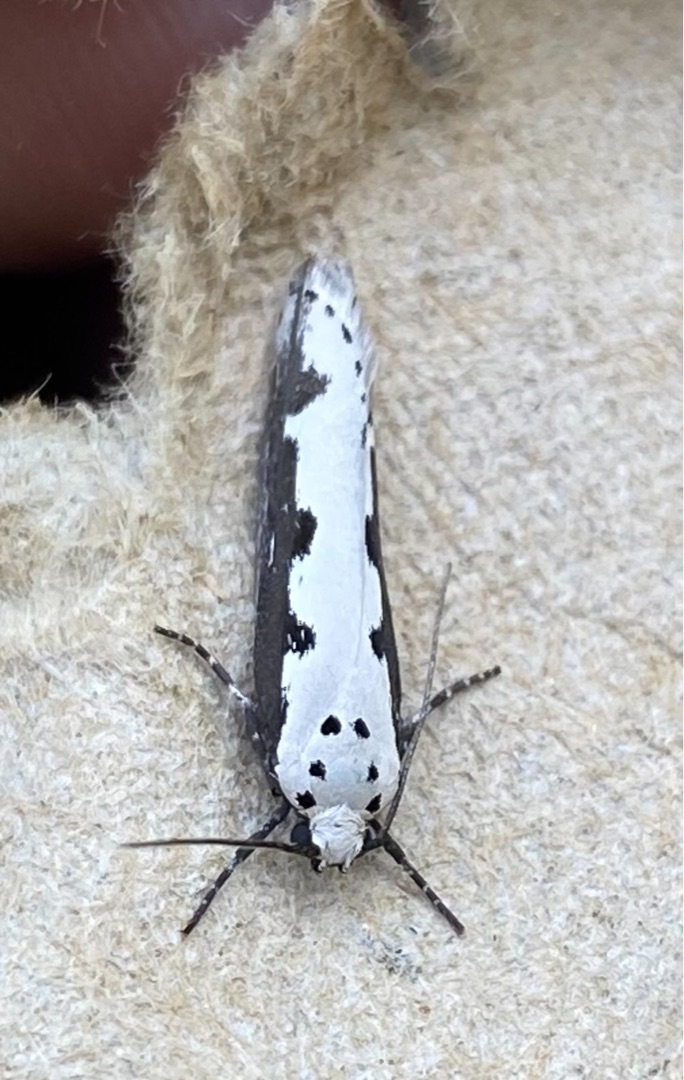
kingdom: Animalia
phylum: Arthropoda
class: Insecta
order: Lepidoptera
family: Ethmiidae
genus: Ethmia
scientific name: Ethmia bipunctella
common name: Slangehovedmøl
